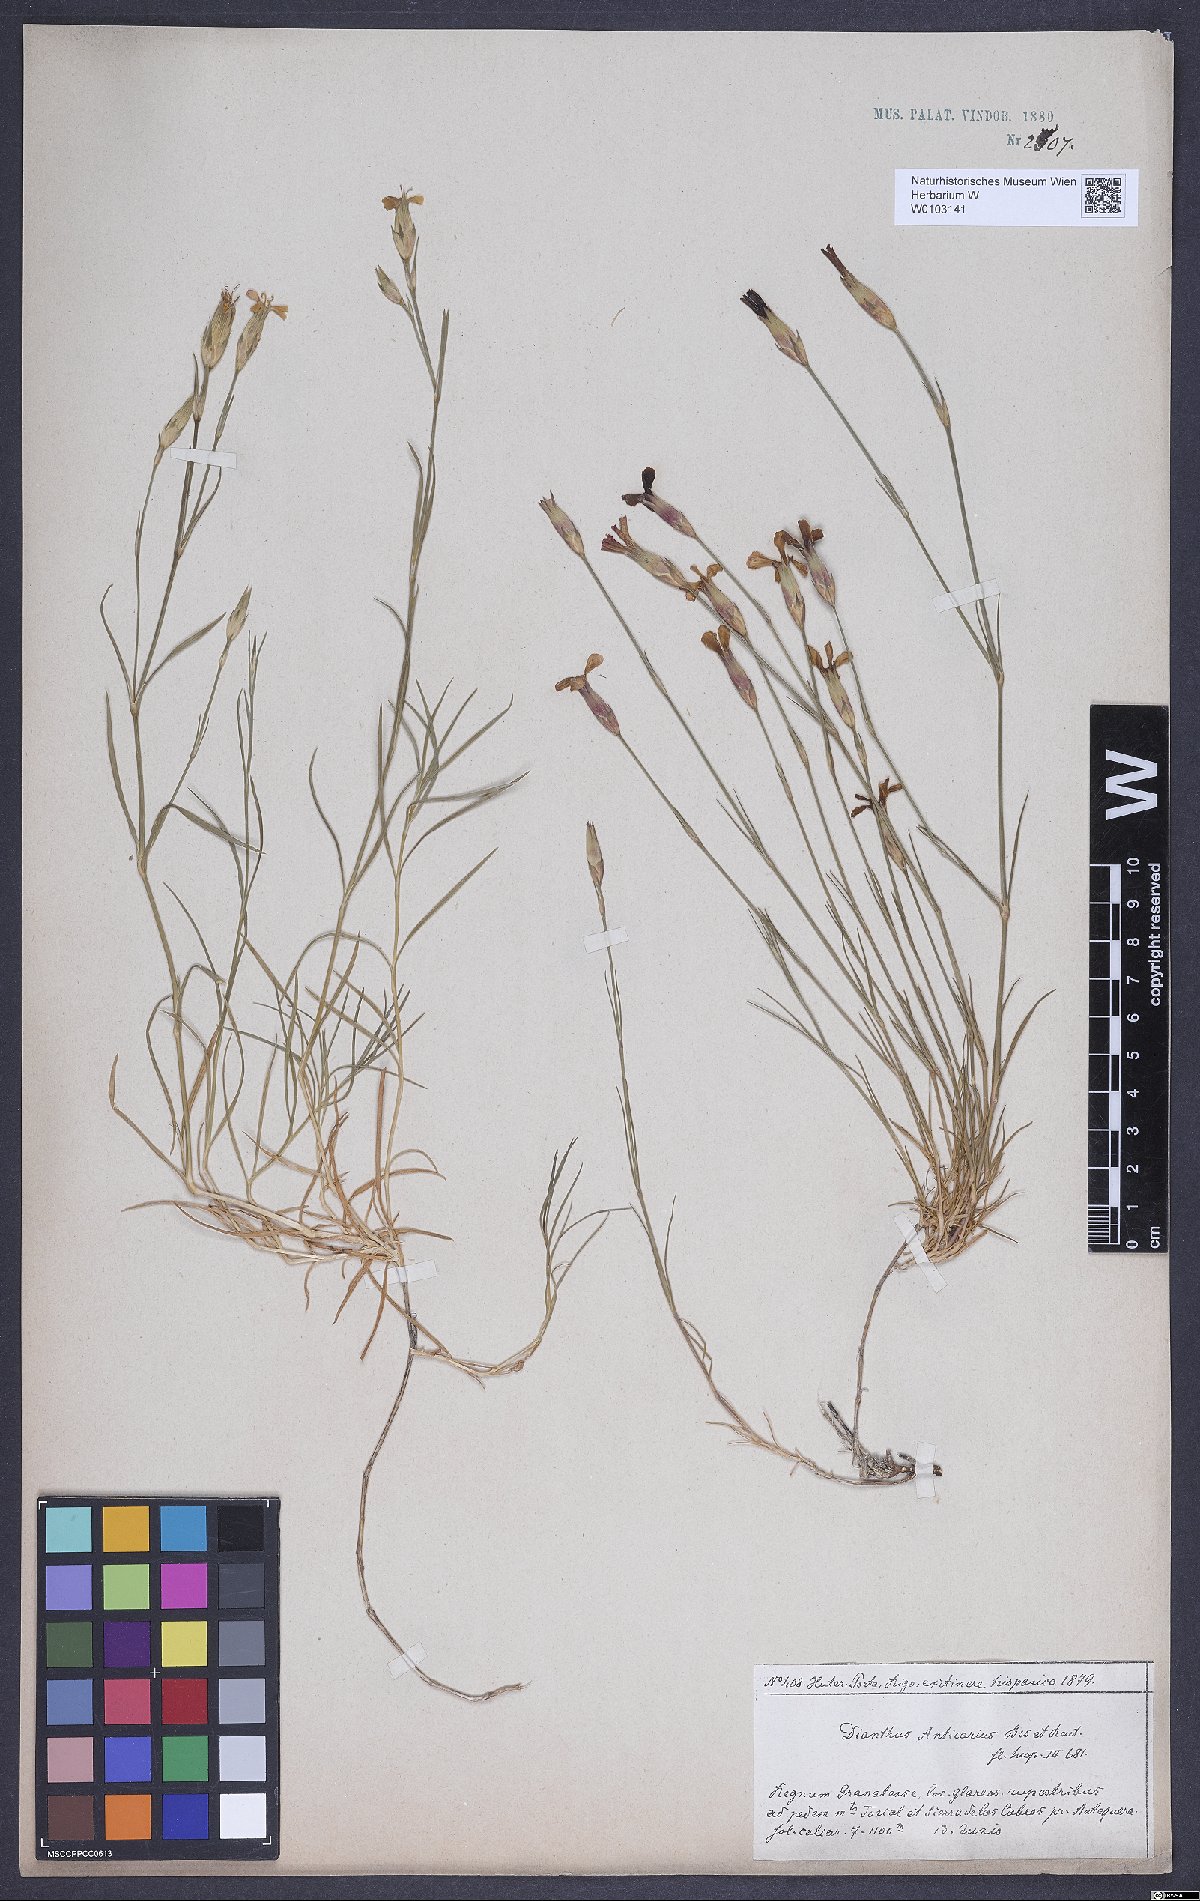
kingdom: Plantae
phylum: Tracheophyta
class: Magnoliopsida
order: Caryophyllales
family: Caryophyllaceae
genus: Dianthus
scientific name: Dianthus anticarius
